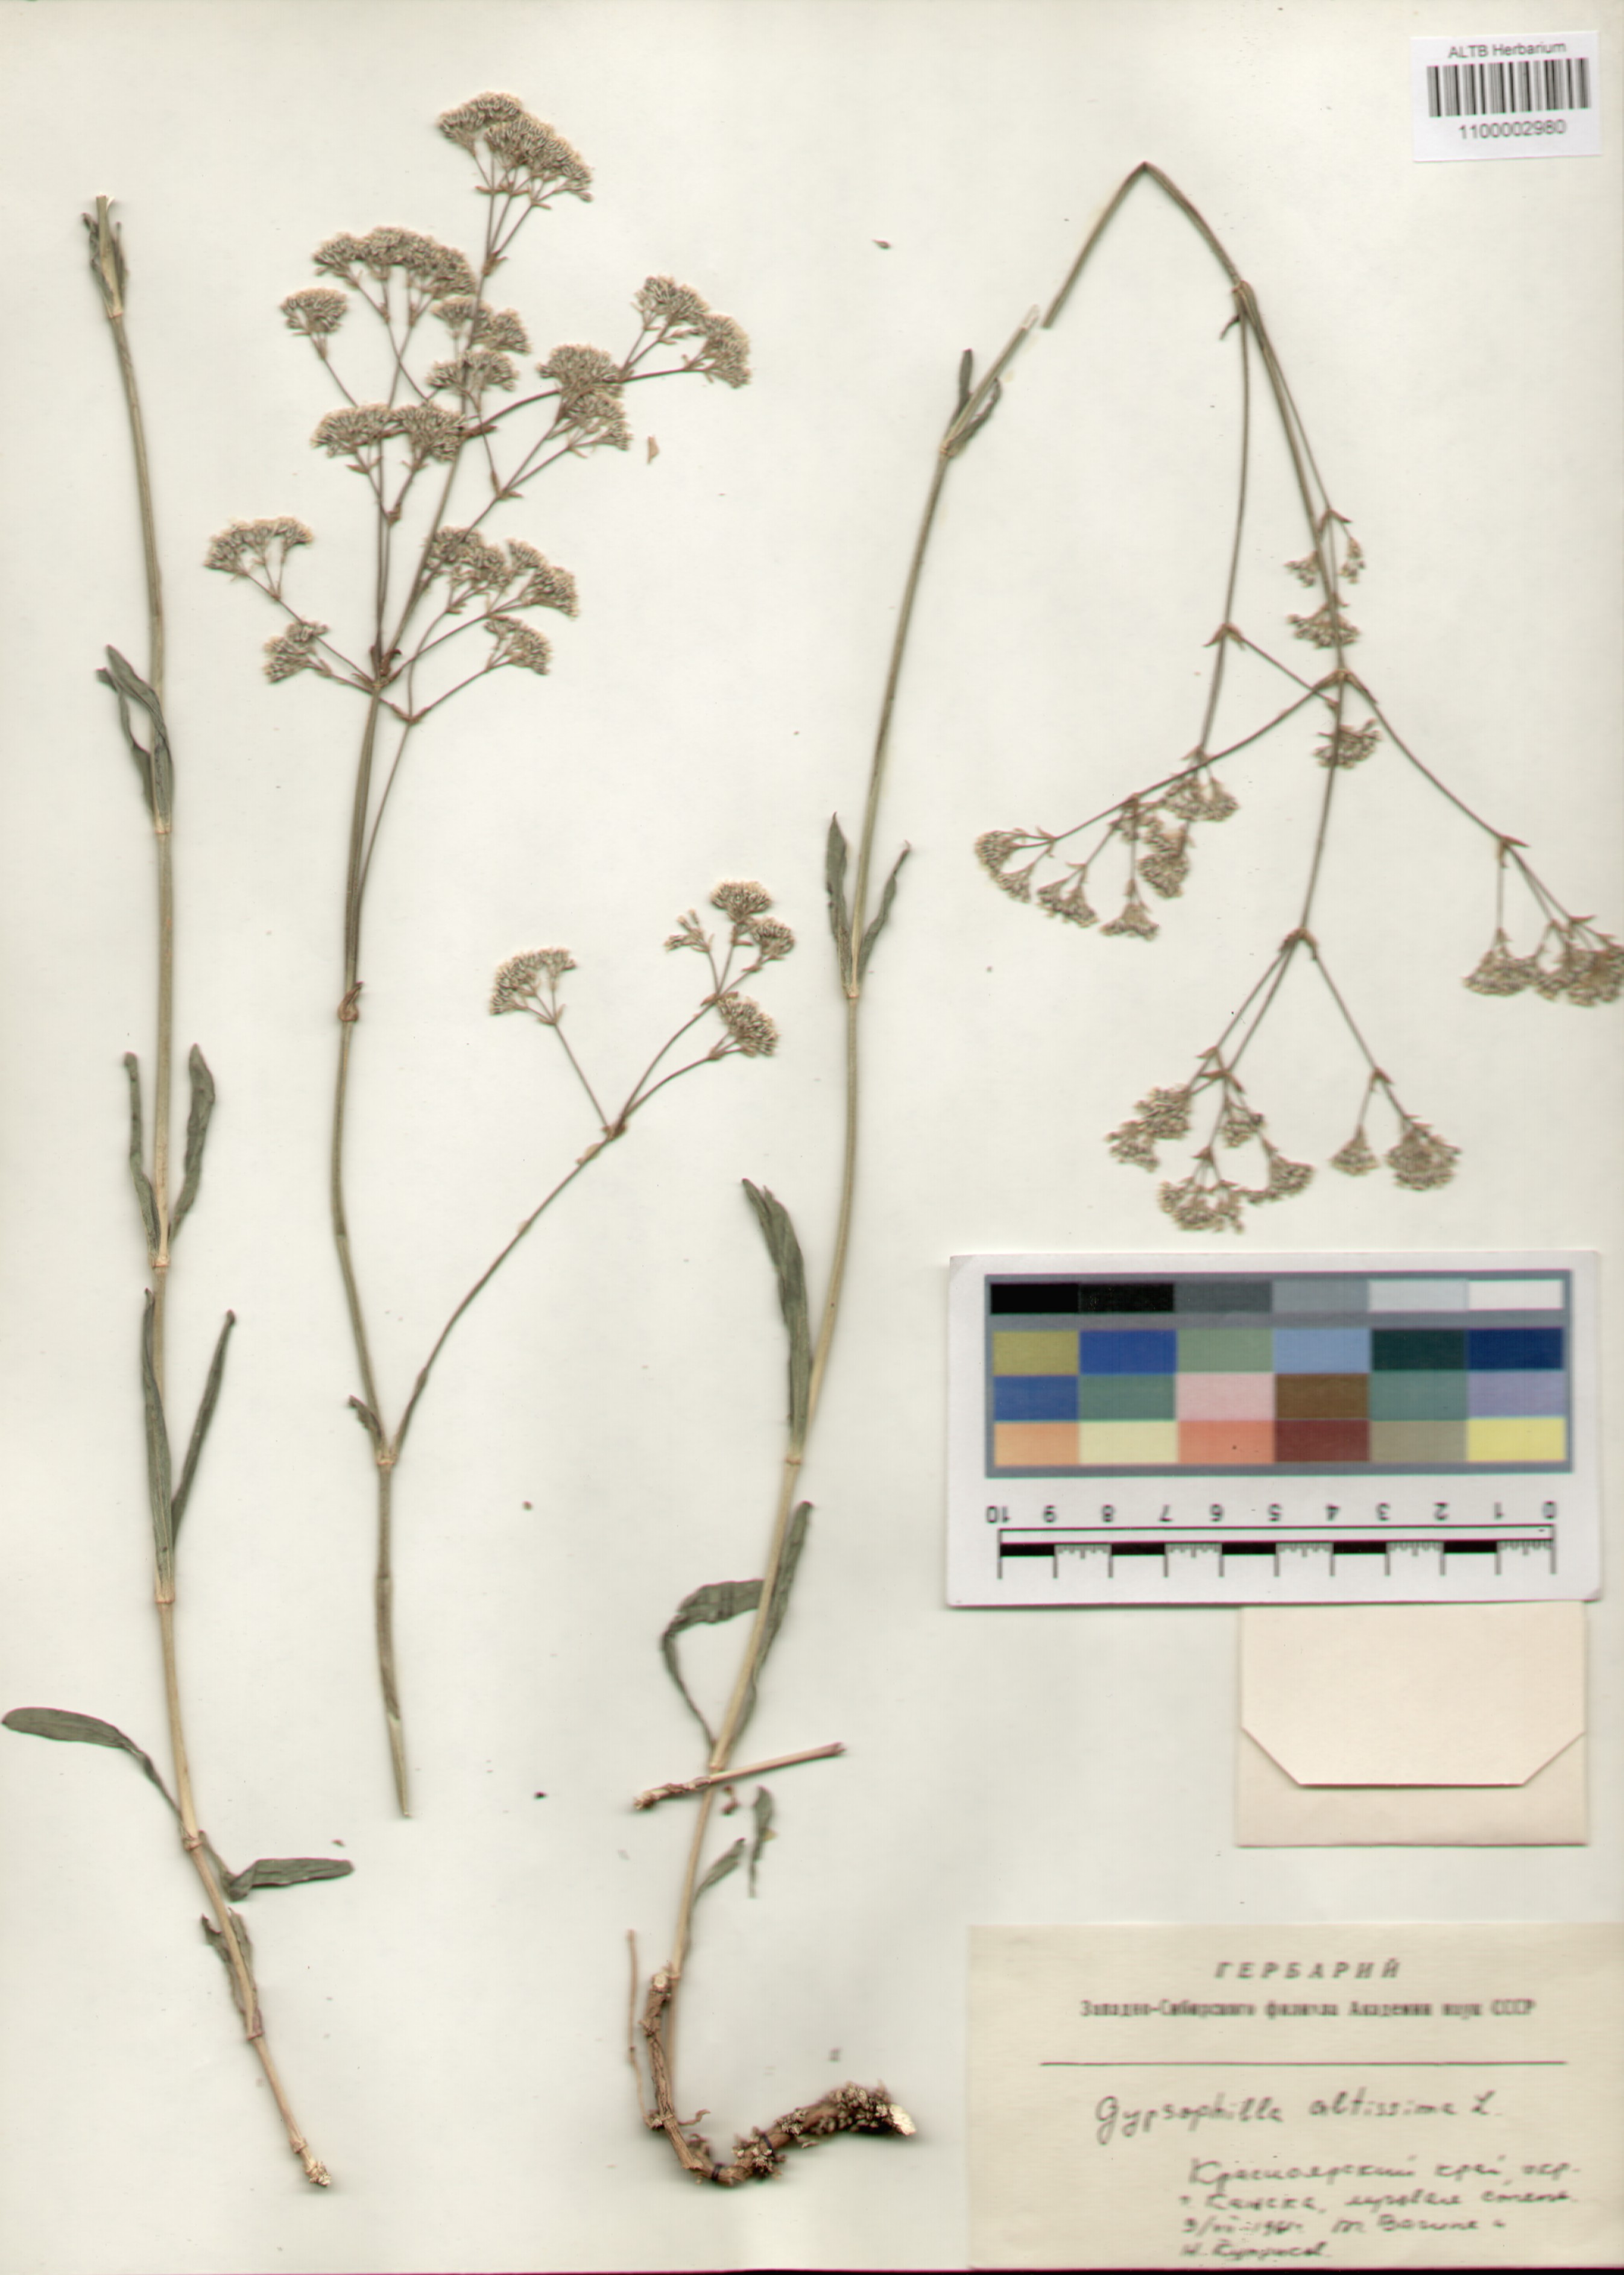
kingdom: Plantae
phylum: Tracheophyta
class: Magnoliopsida
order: Caryophyllales
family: Caryophyllaceae
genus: Gypsophila
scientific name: Gypsophila altissima
